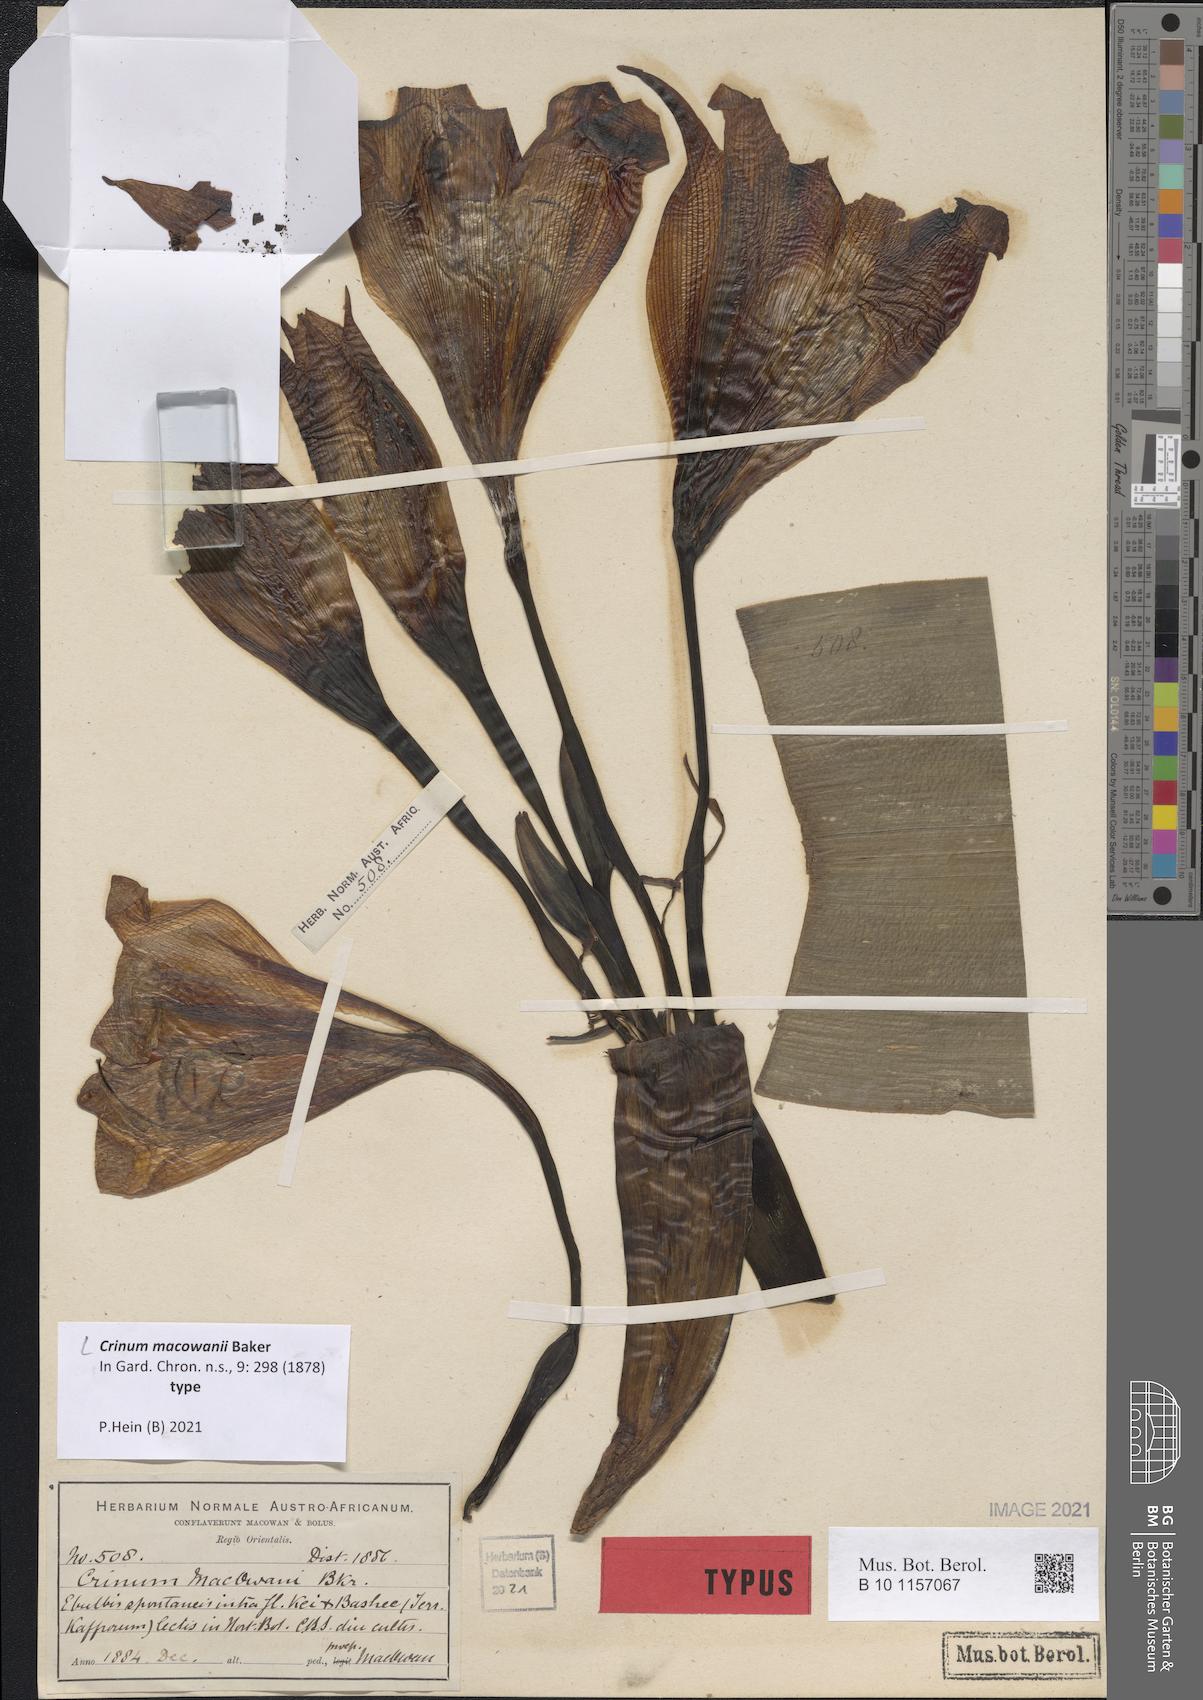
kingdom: Plantae
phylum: Tracheophyta
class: Liliopsida
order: Asparagales
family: Amaryllidaceae
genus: Crinum
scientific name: Crinum macowanii
